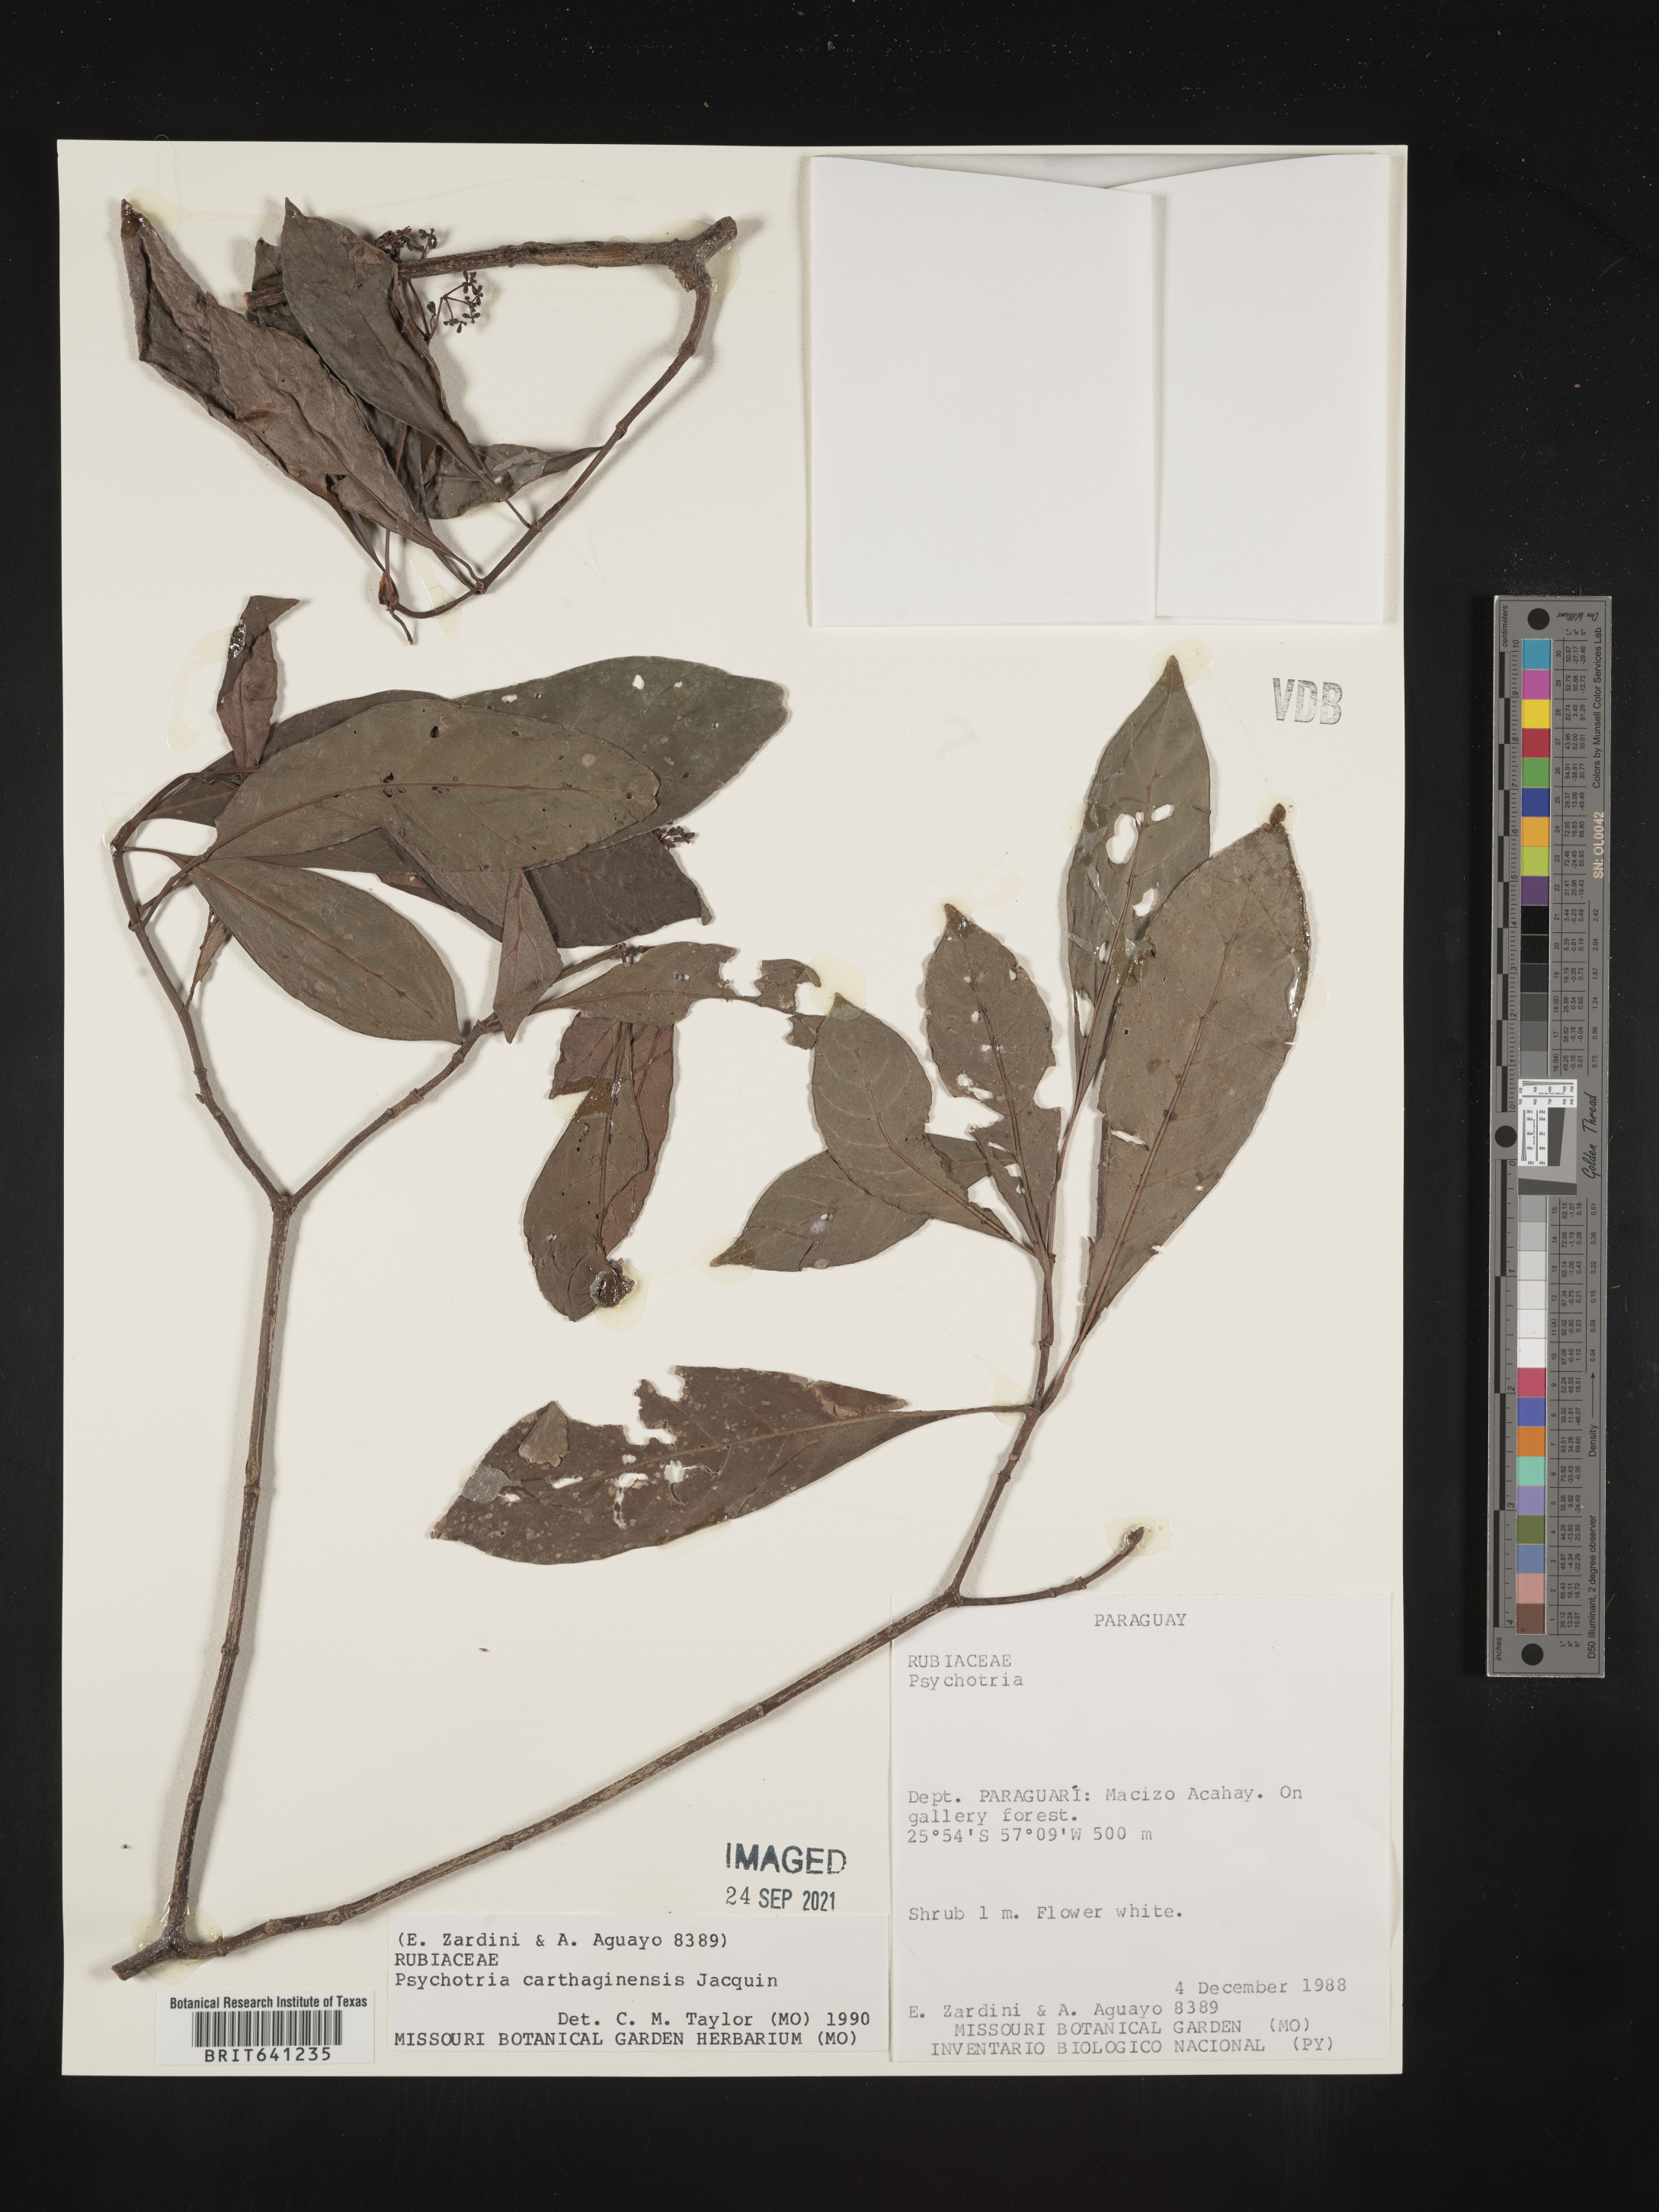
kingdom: Plantae
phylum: Tracheophyta
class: Magnoliopsida
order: Gentianales
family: Rubiaceae
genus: Psychotria
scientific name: Psychotria
